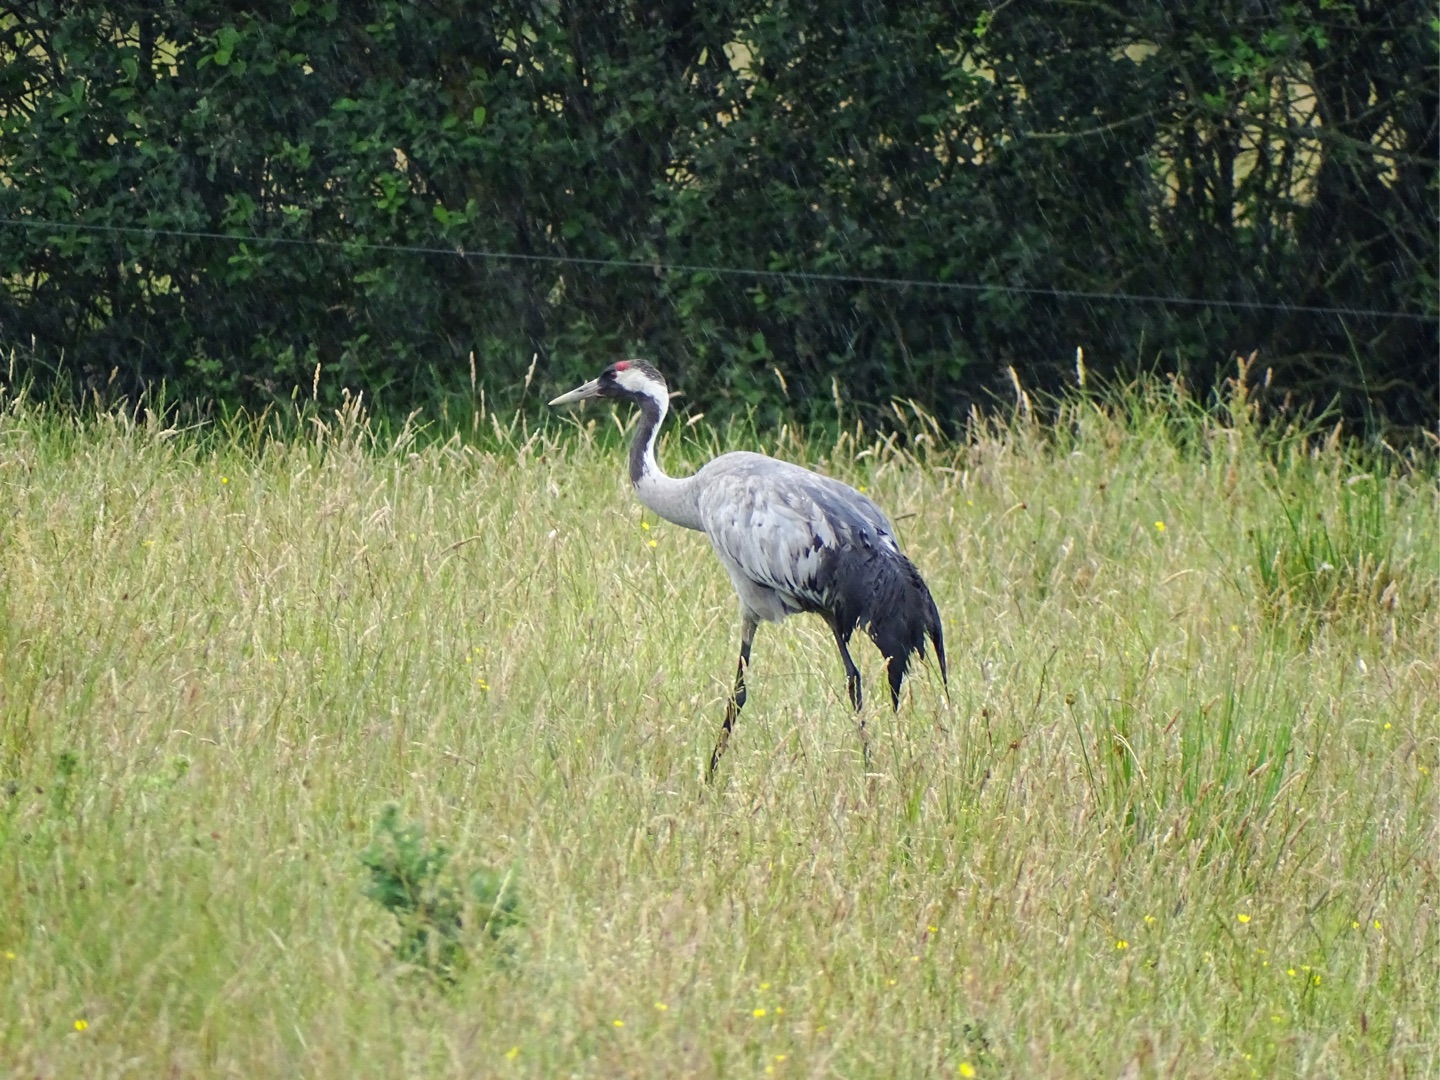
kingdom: Animalia
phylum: Chordata
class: Aves
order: Gruiformes
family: Gruidae
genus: Grus
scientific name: Grus grus
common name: Trane
